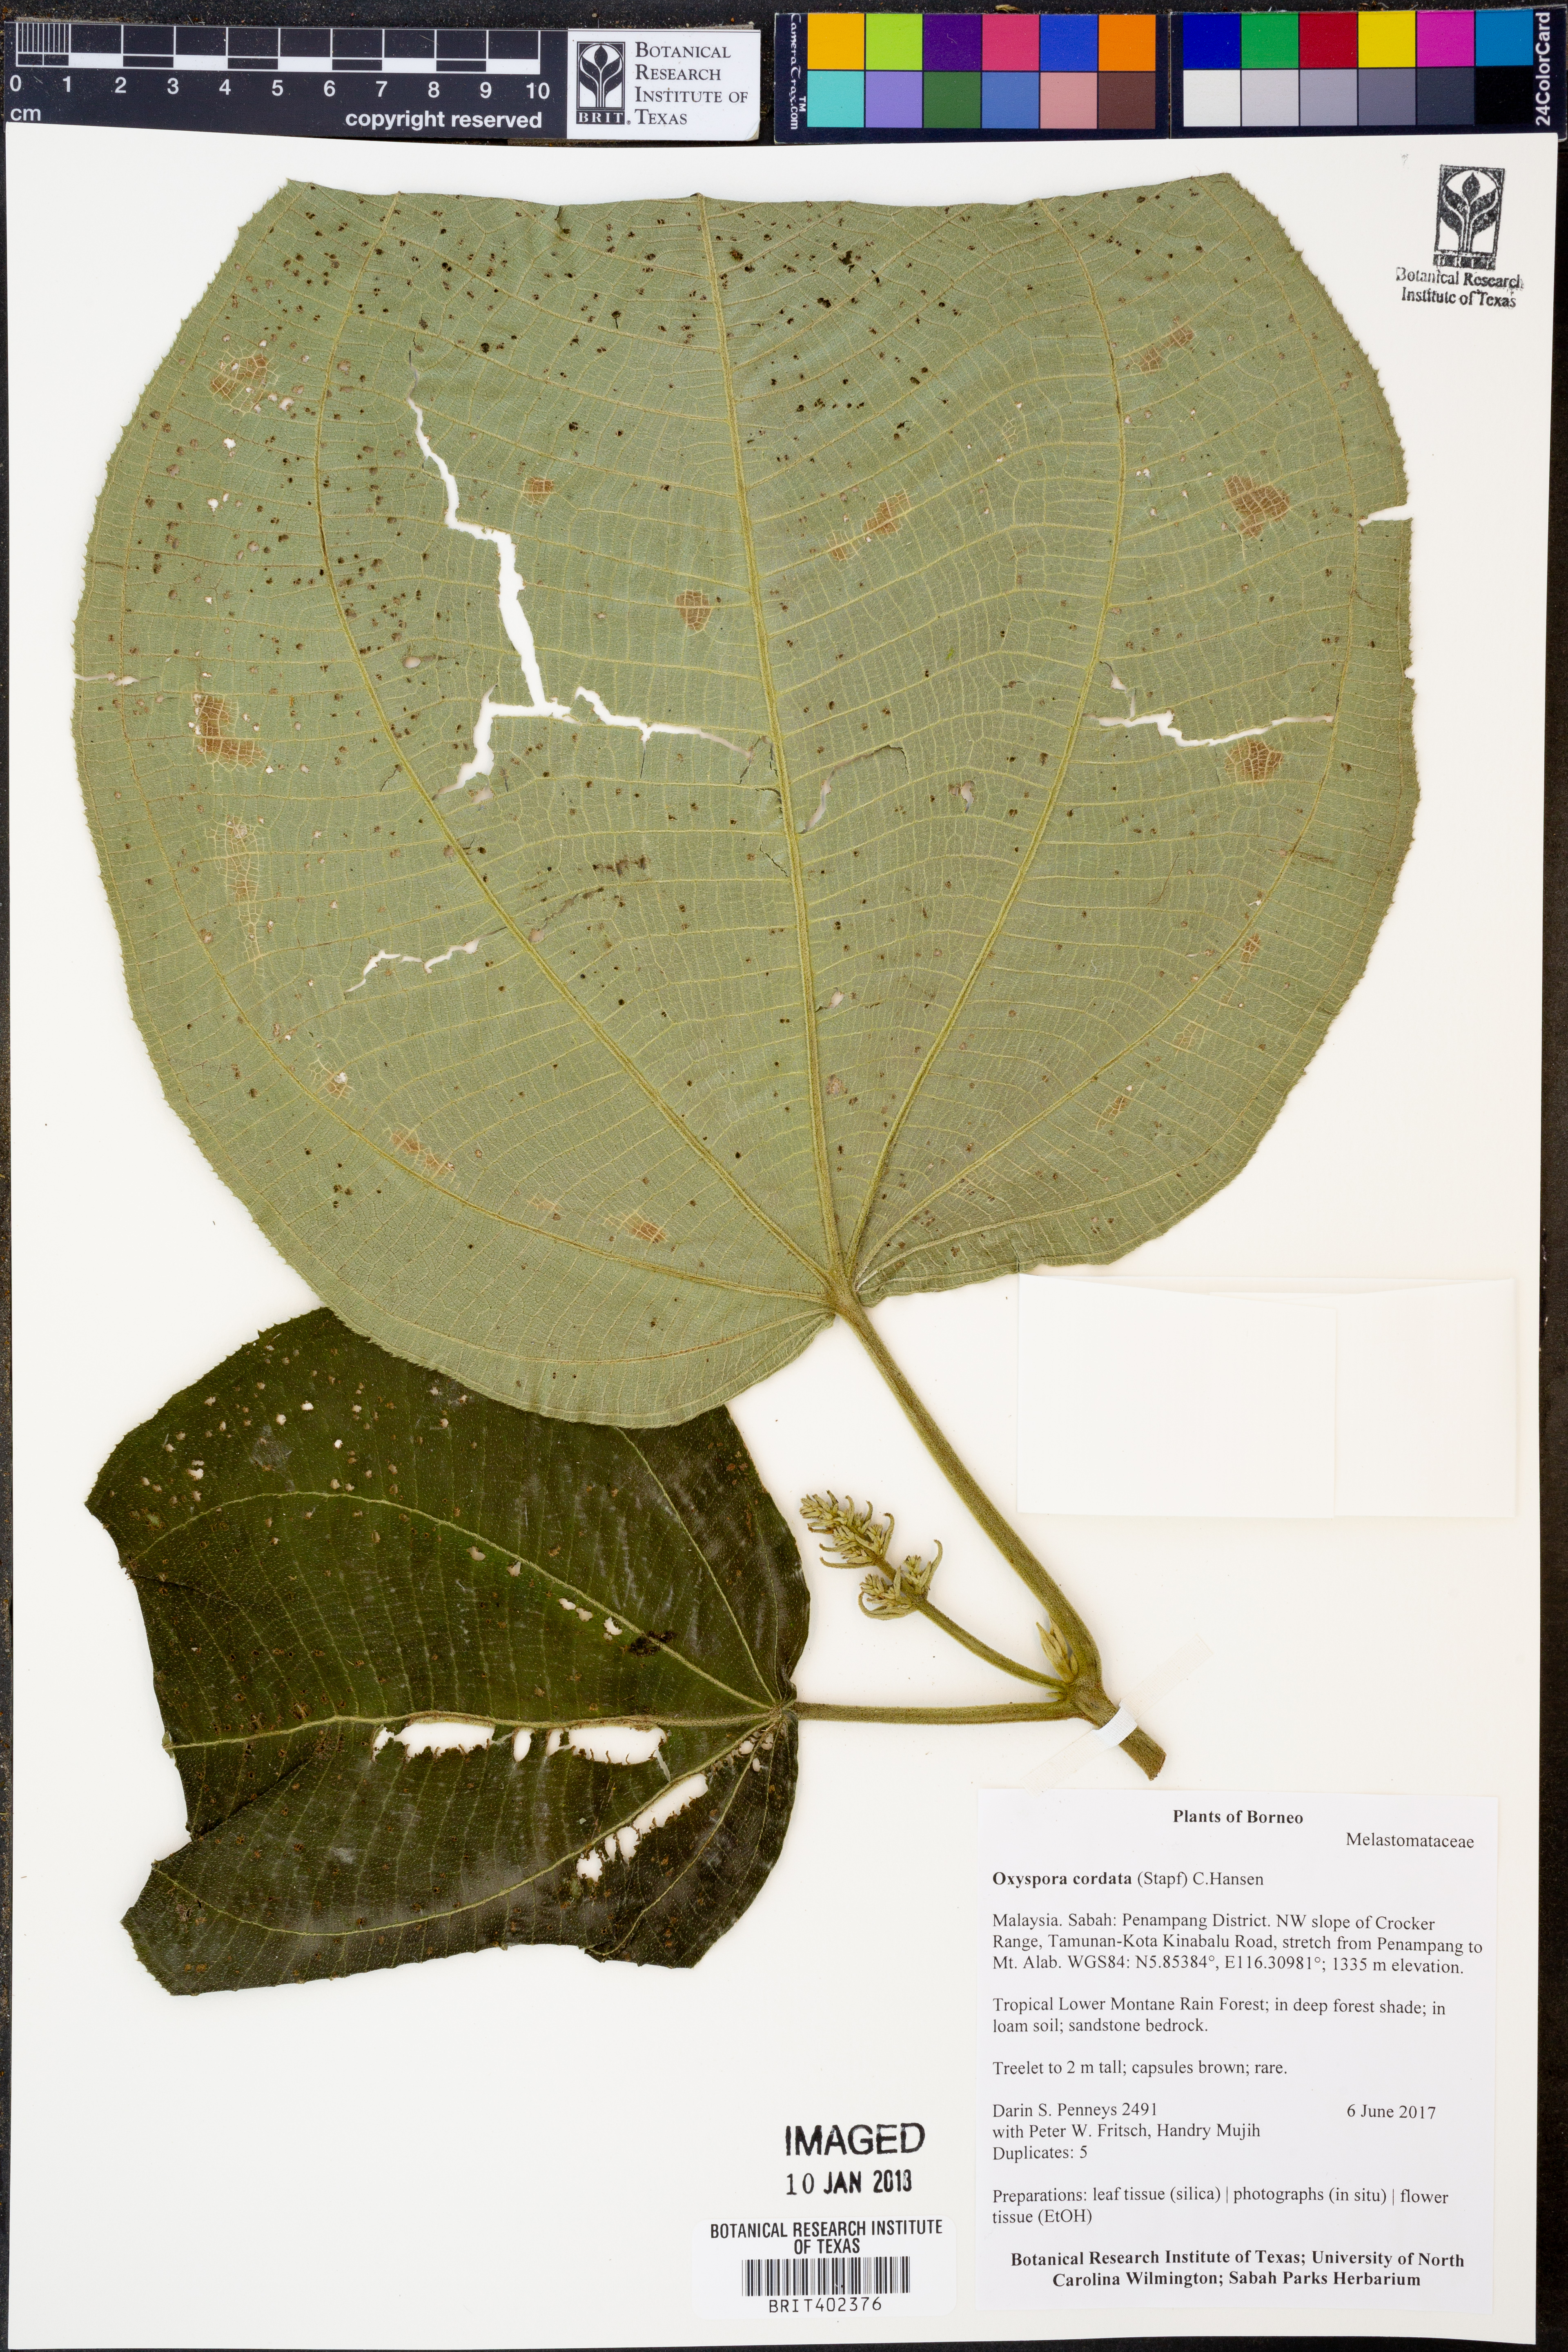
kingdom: Plantae
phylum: Tracheophyta
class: Magnoliopsida
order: Myrtales
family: Melastomataceae
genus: Anerincleistus
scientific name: Anerincleistus cordatus
